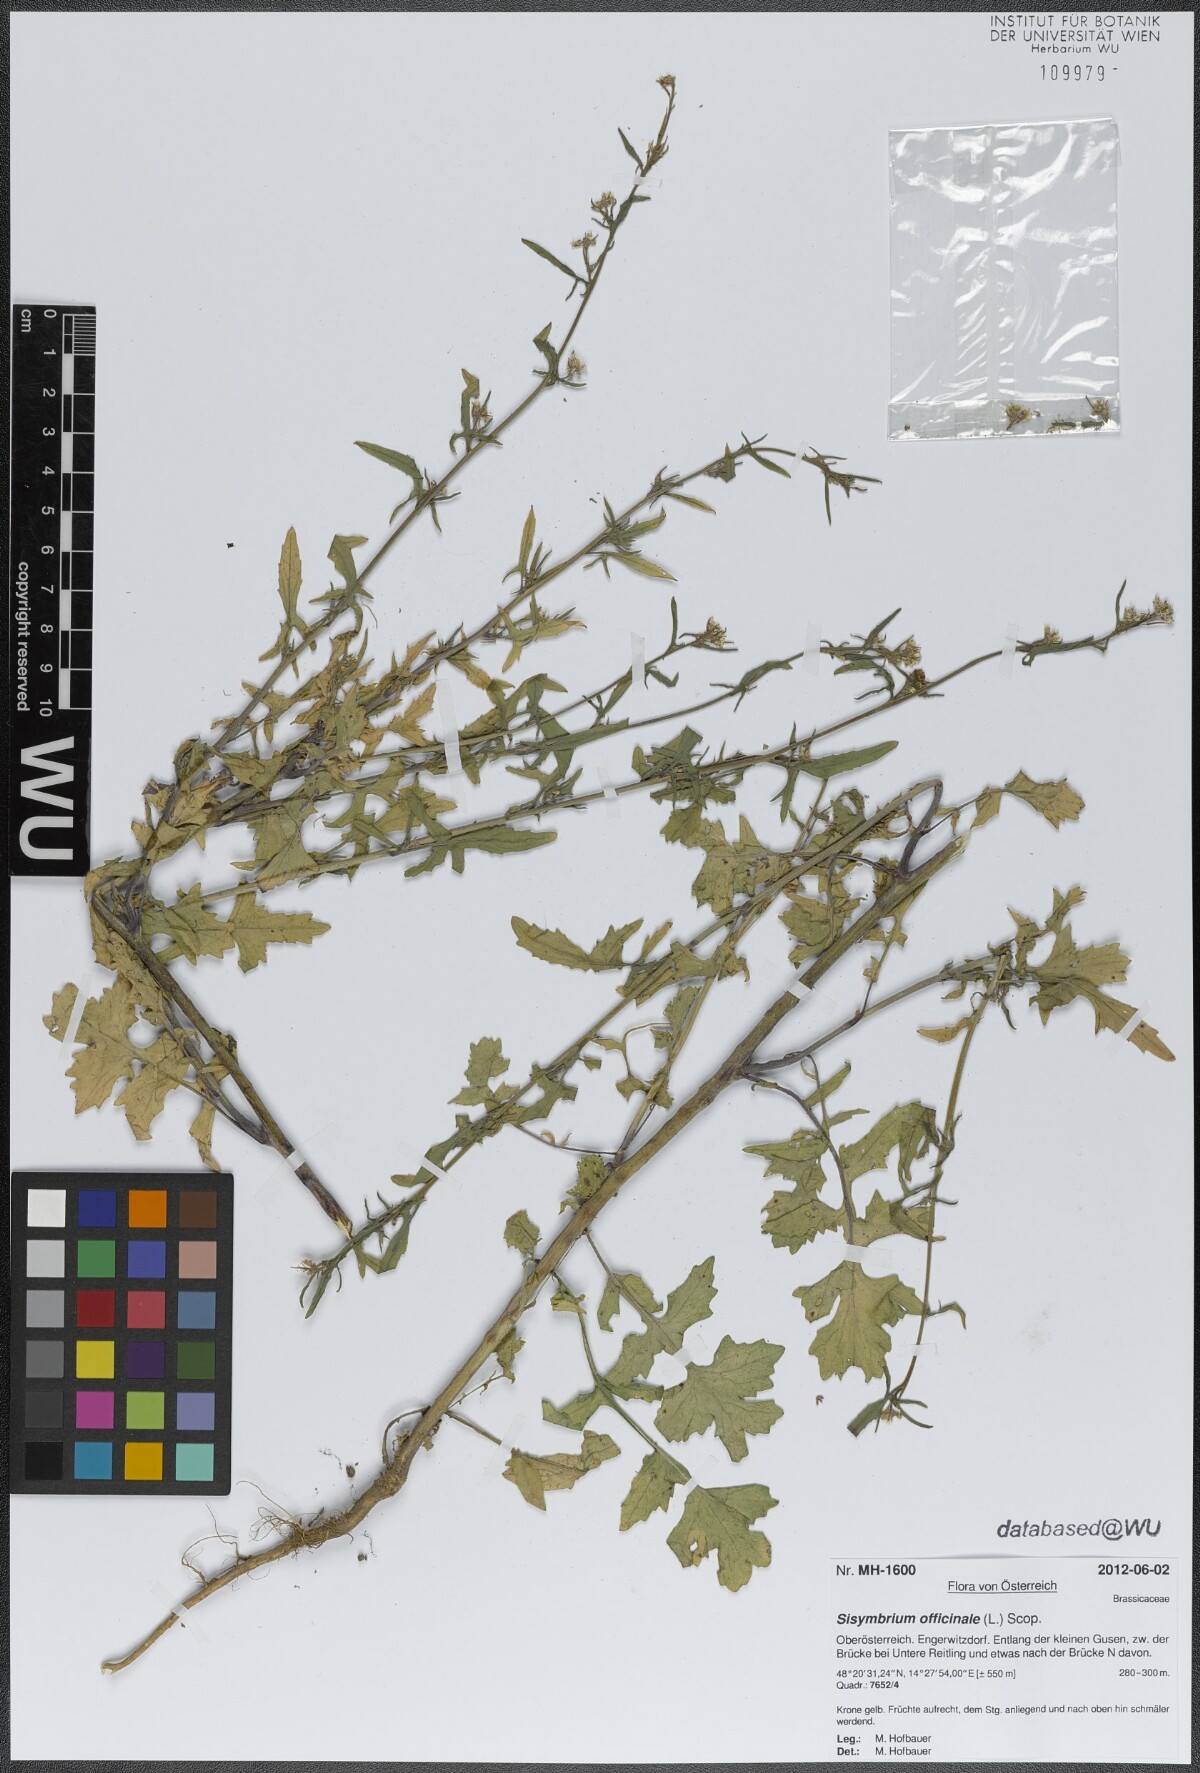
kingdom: Plantae
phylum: Tracheophyta
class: Magnoliopsida
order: Brassicales
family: Brassicaceae
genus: Sisymbrium
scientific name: Sisymbrium officinale
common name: Hedge mustard
